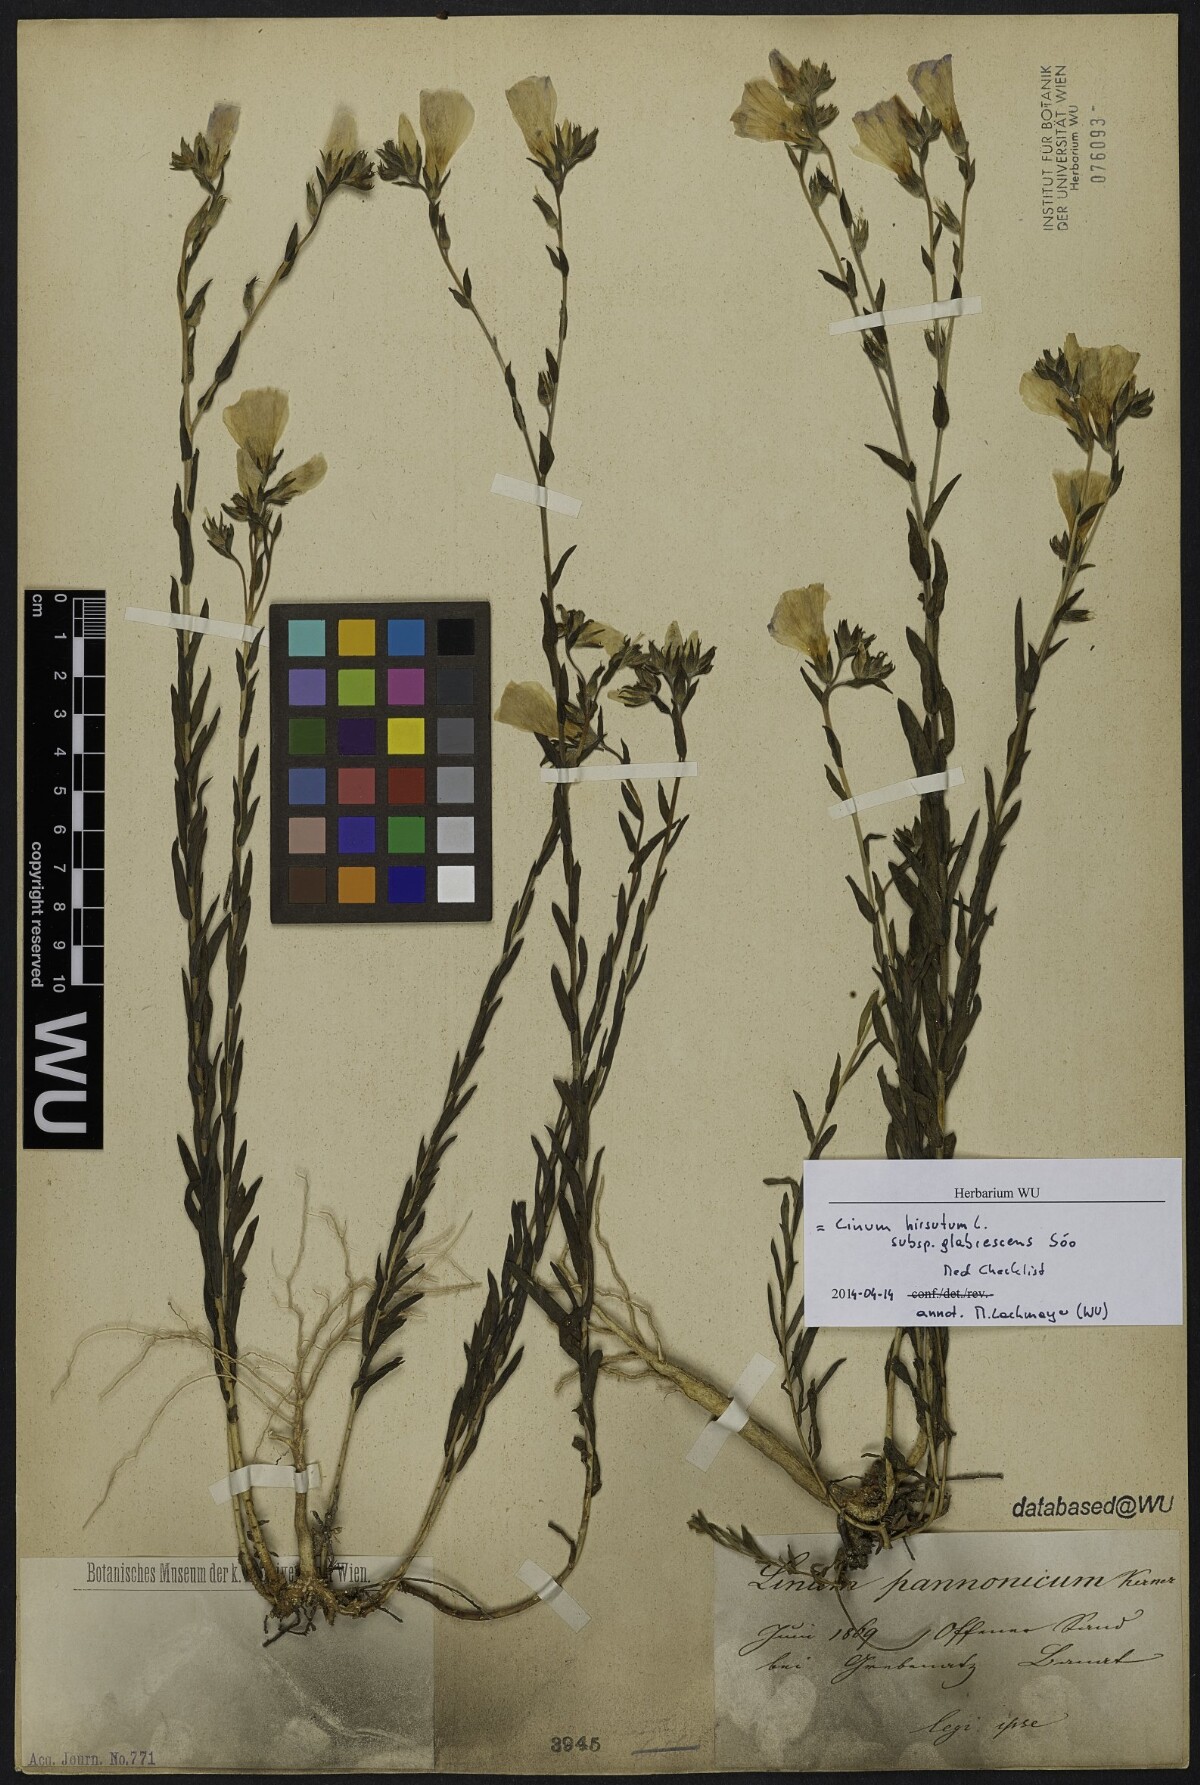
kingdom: Plantae
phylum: Tracheophyta
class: Magnoliopsida
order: Malpighiales
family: Linaceae
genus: Linum
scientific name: Linum hirsutum
